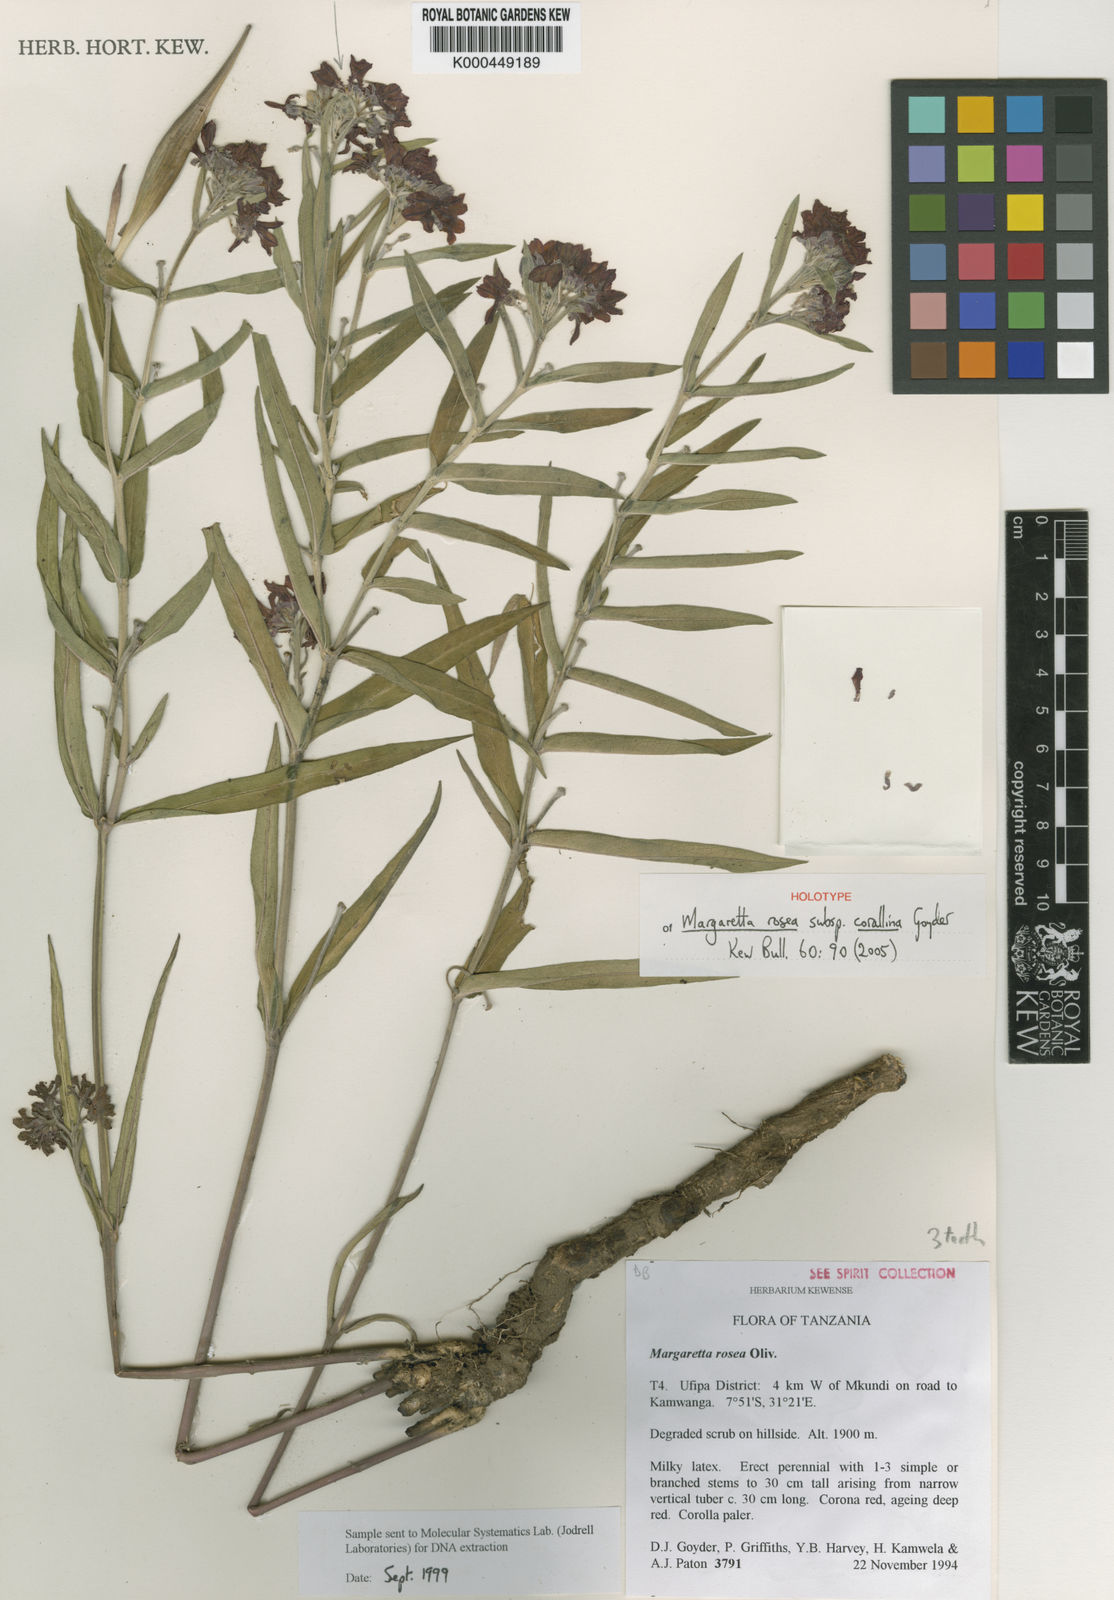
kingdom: Plantae
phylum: Tracheophyta
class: Magnoliopsida
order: Gentianales
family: Apocynaceae
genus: Margaretta
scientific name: Margaretta rosea
